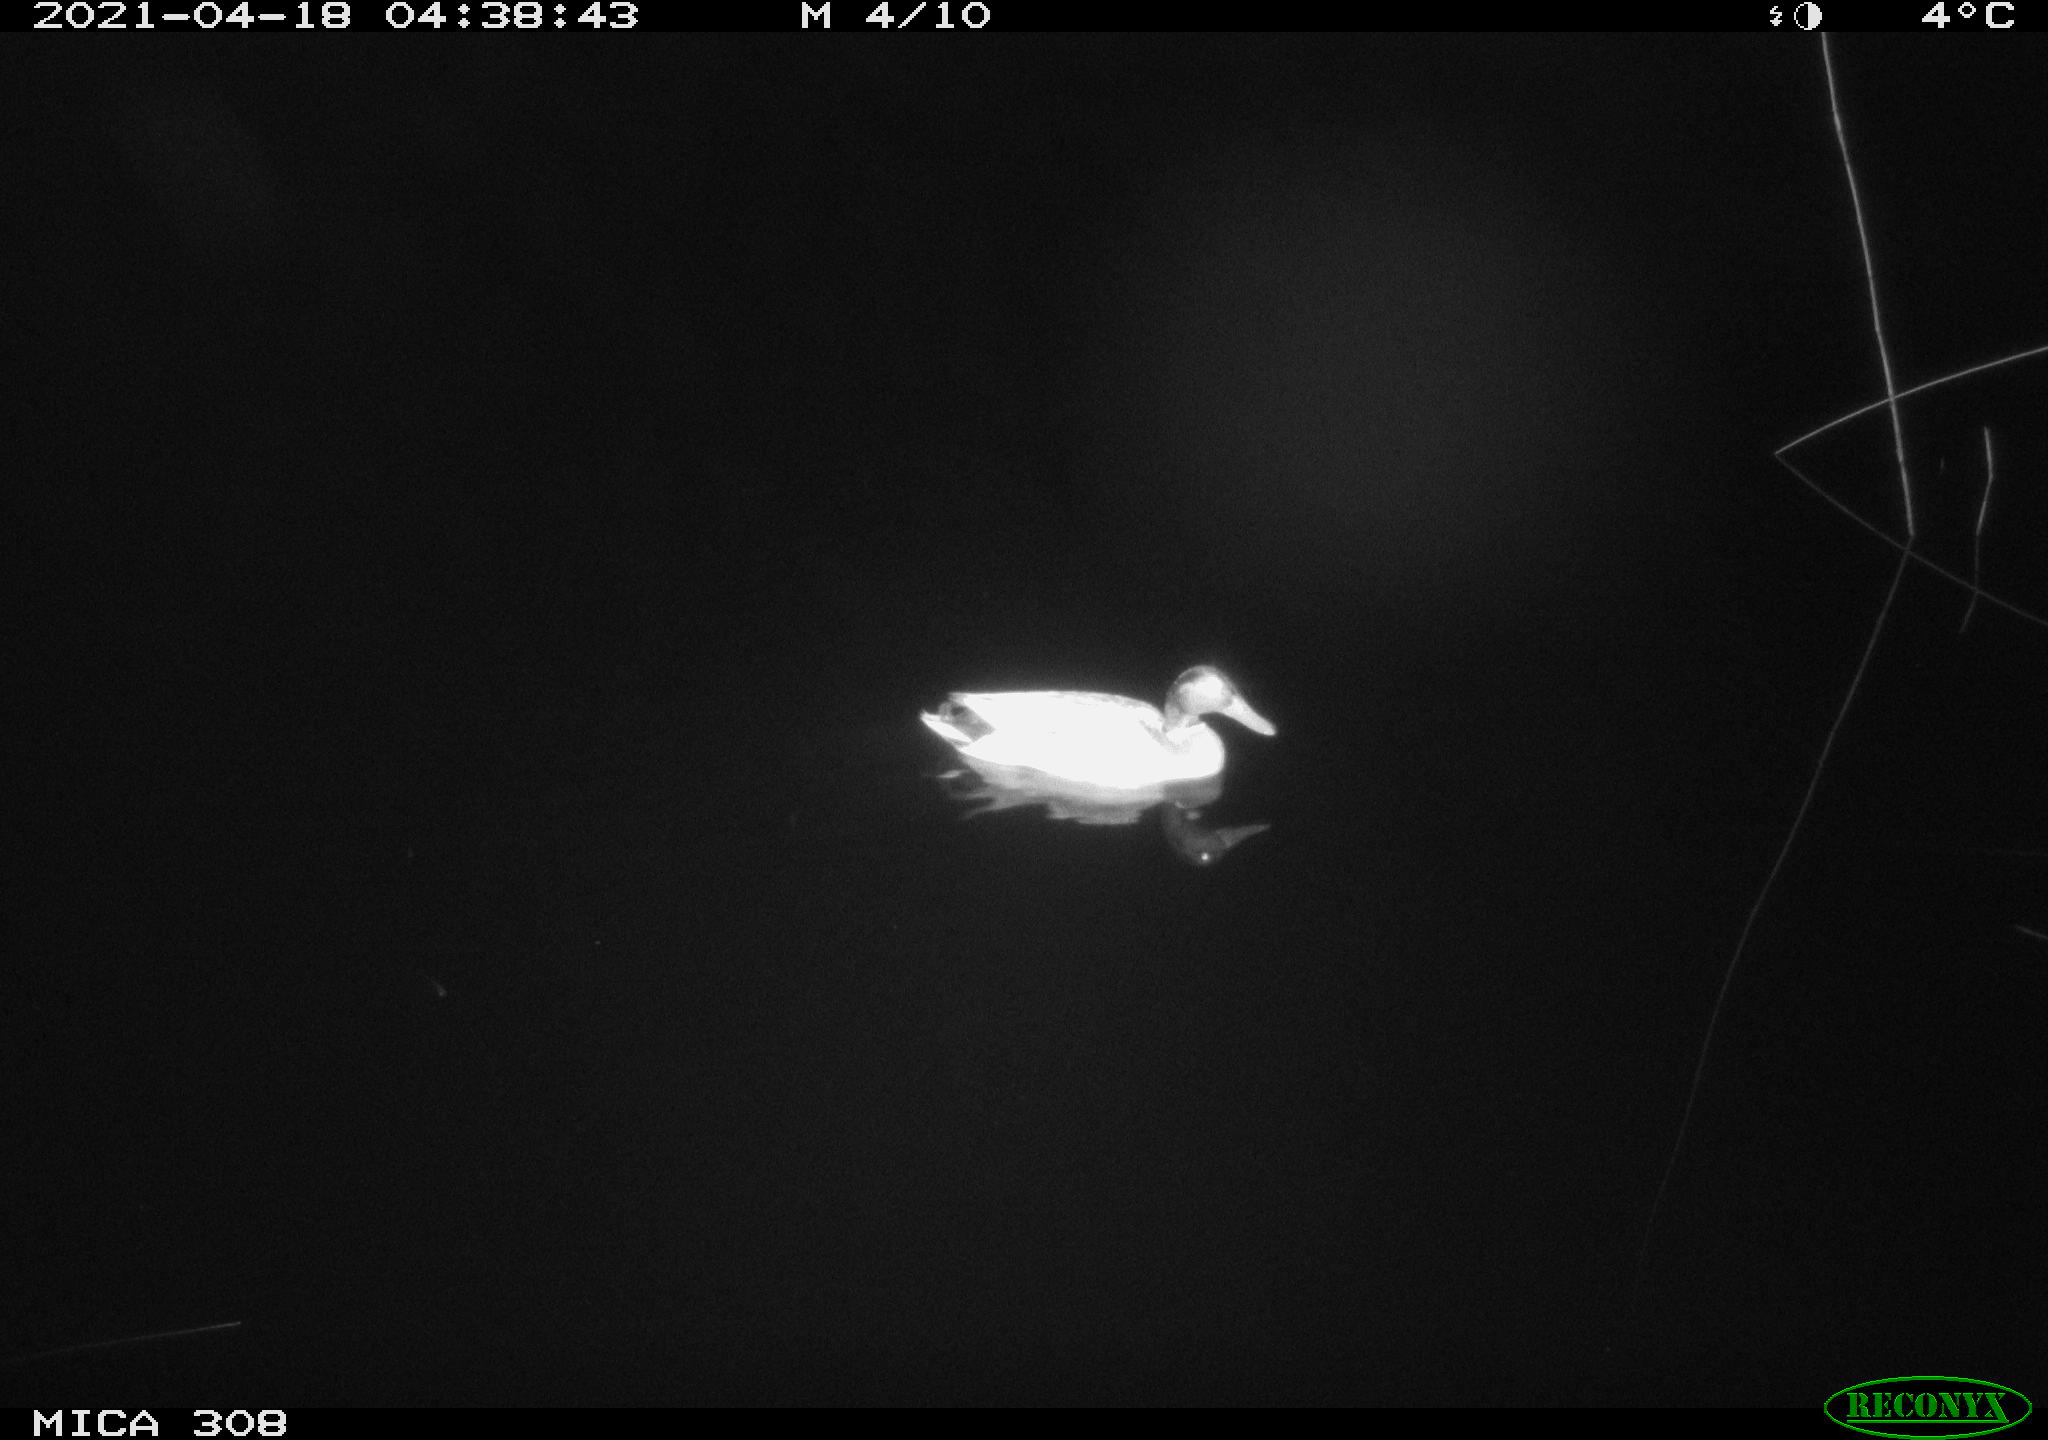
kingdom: Animalia
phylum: Chordata
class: Aves
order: Anseriformes
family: Anatidae
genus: Anas
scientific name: Anas platyrhynchos
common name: Mallard
